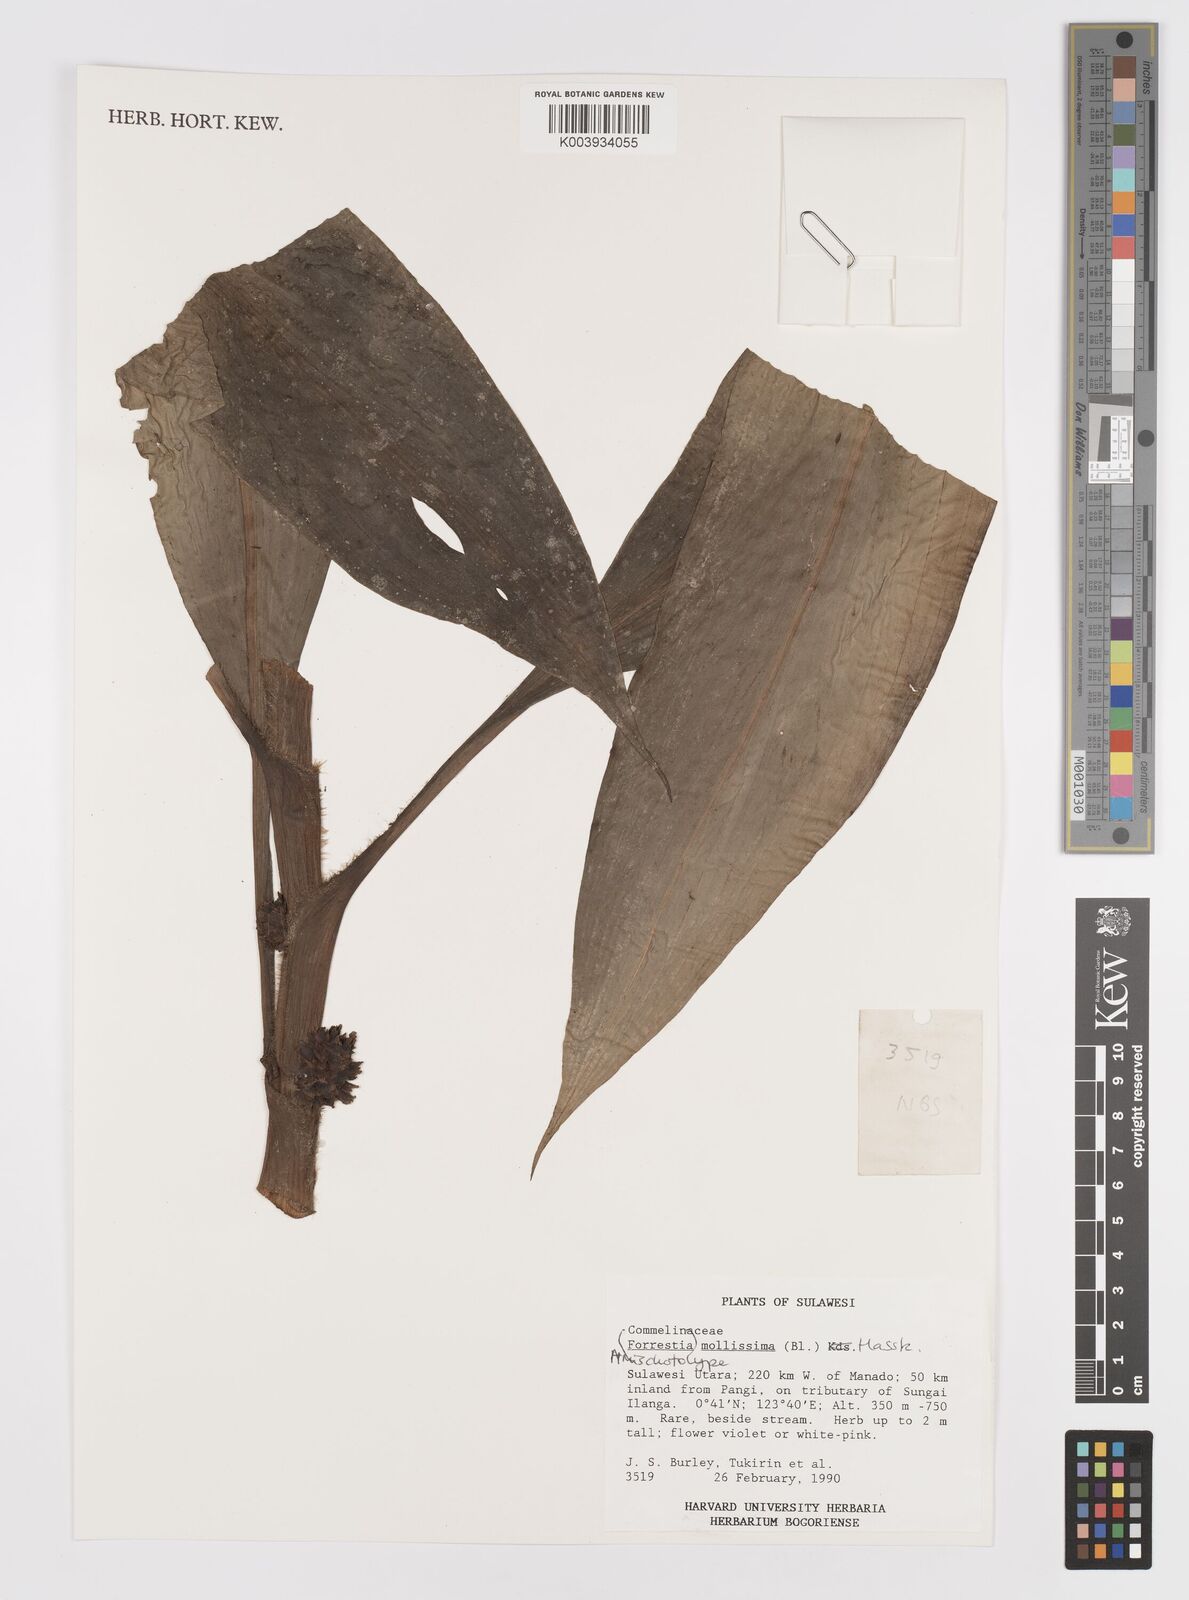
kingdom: Plantae
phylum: Tracheophyta
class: Liliopsida
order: Commelinales
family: Commelinaceae
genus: Amischotolype
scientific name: Amischotolype mollissima
